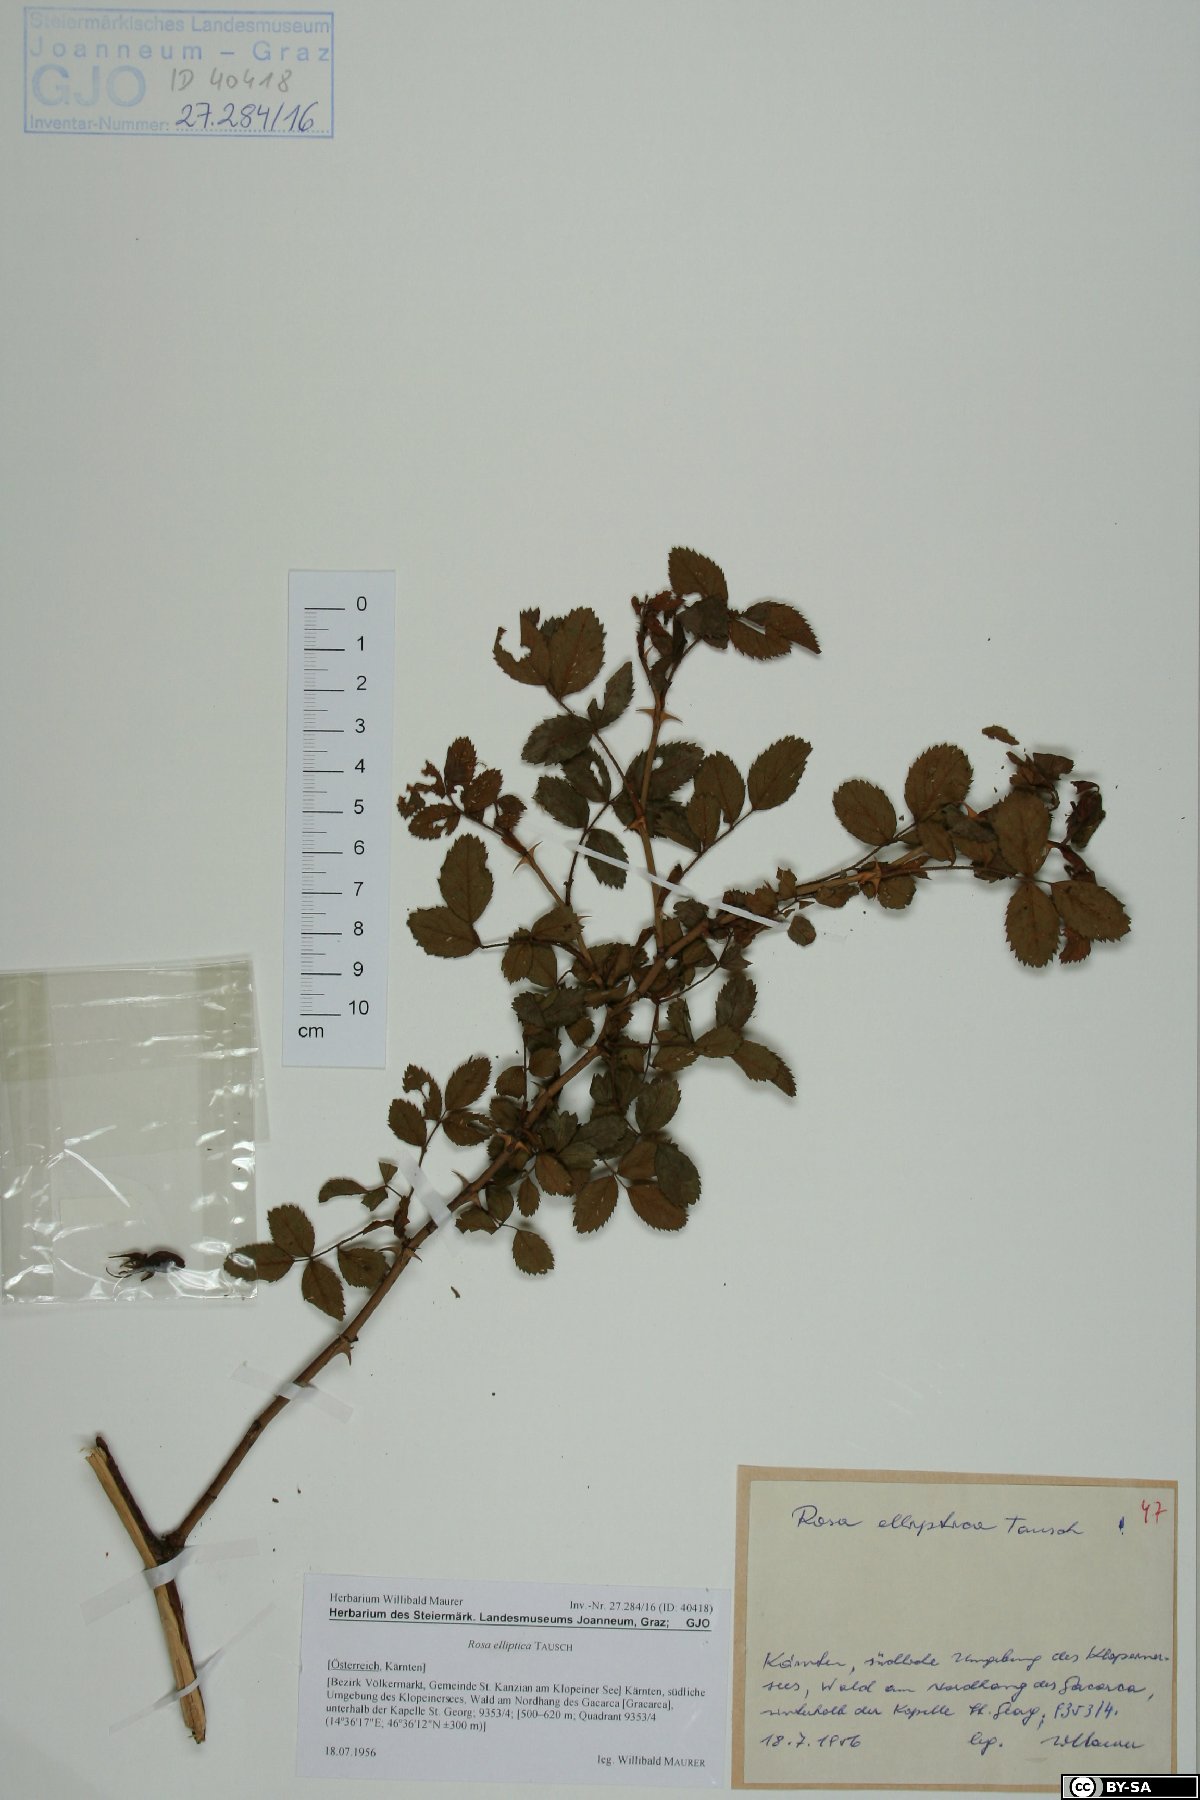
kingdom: Plantae
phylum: Tracheophyta
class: Magnoliopsida
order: Rosales
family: Rosaceae
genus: Rosa
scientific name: Rosa inodora
